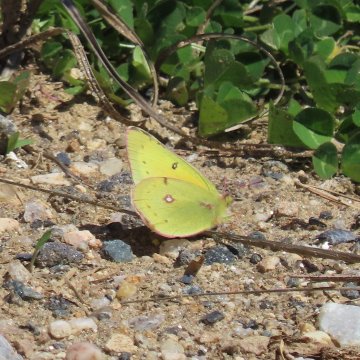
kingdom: Animalia
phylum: Arthropoda
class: Insecta
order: Lepidoptera
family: Pieridae
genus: Colias
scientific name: Colias eurytheme
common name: Orange Sulphur
